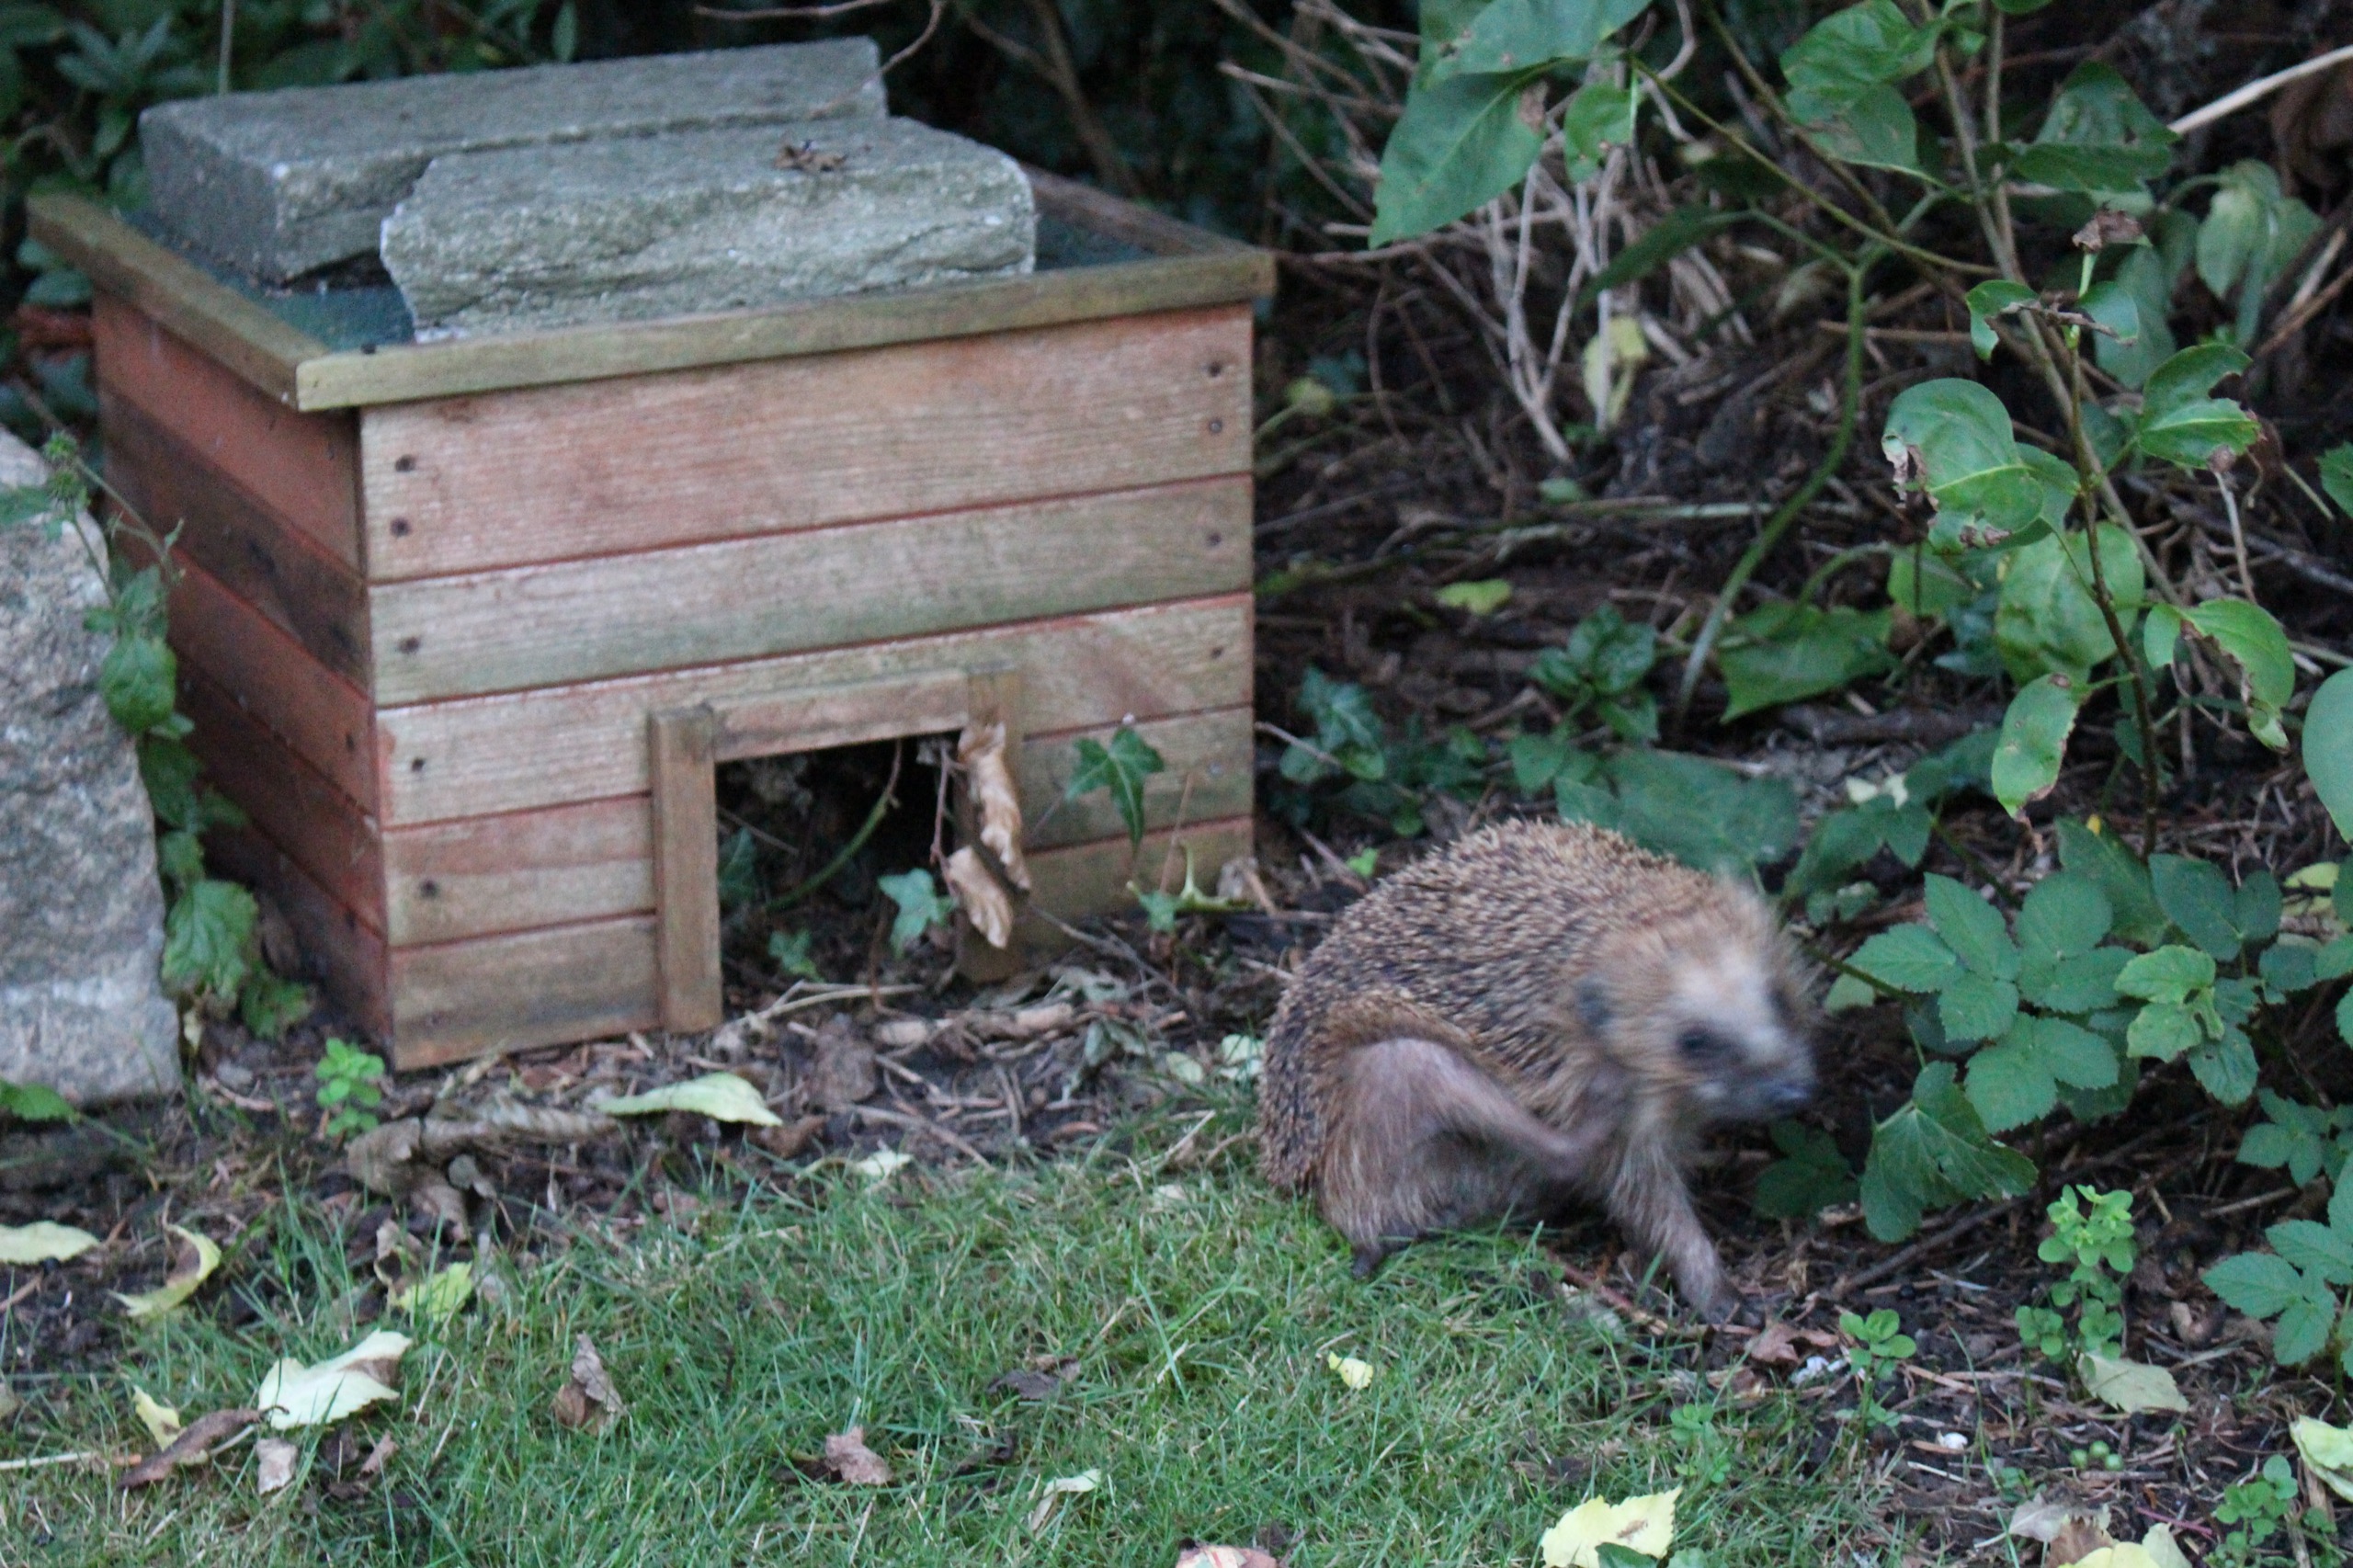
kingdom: Animalia
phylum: Chordata
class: Mammalia
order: Erinaceomorpha
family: Erinaceidae
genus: Erinaceus
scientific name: Erinaceus europaeus
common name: Pindsvin
